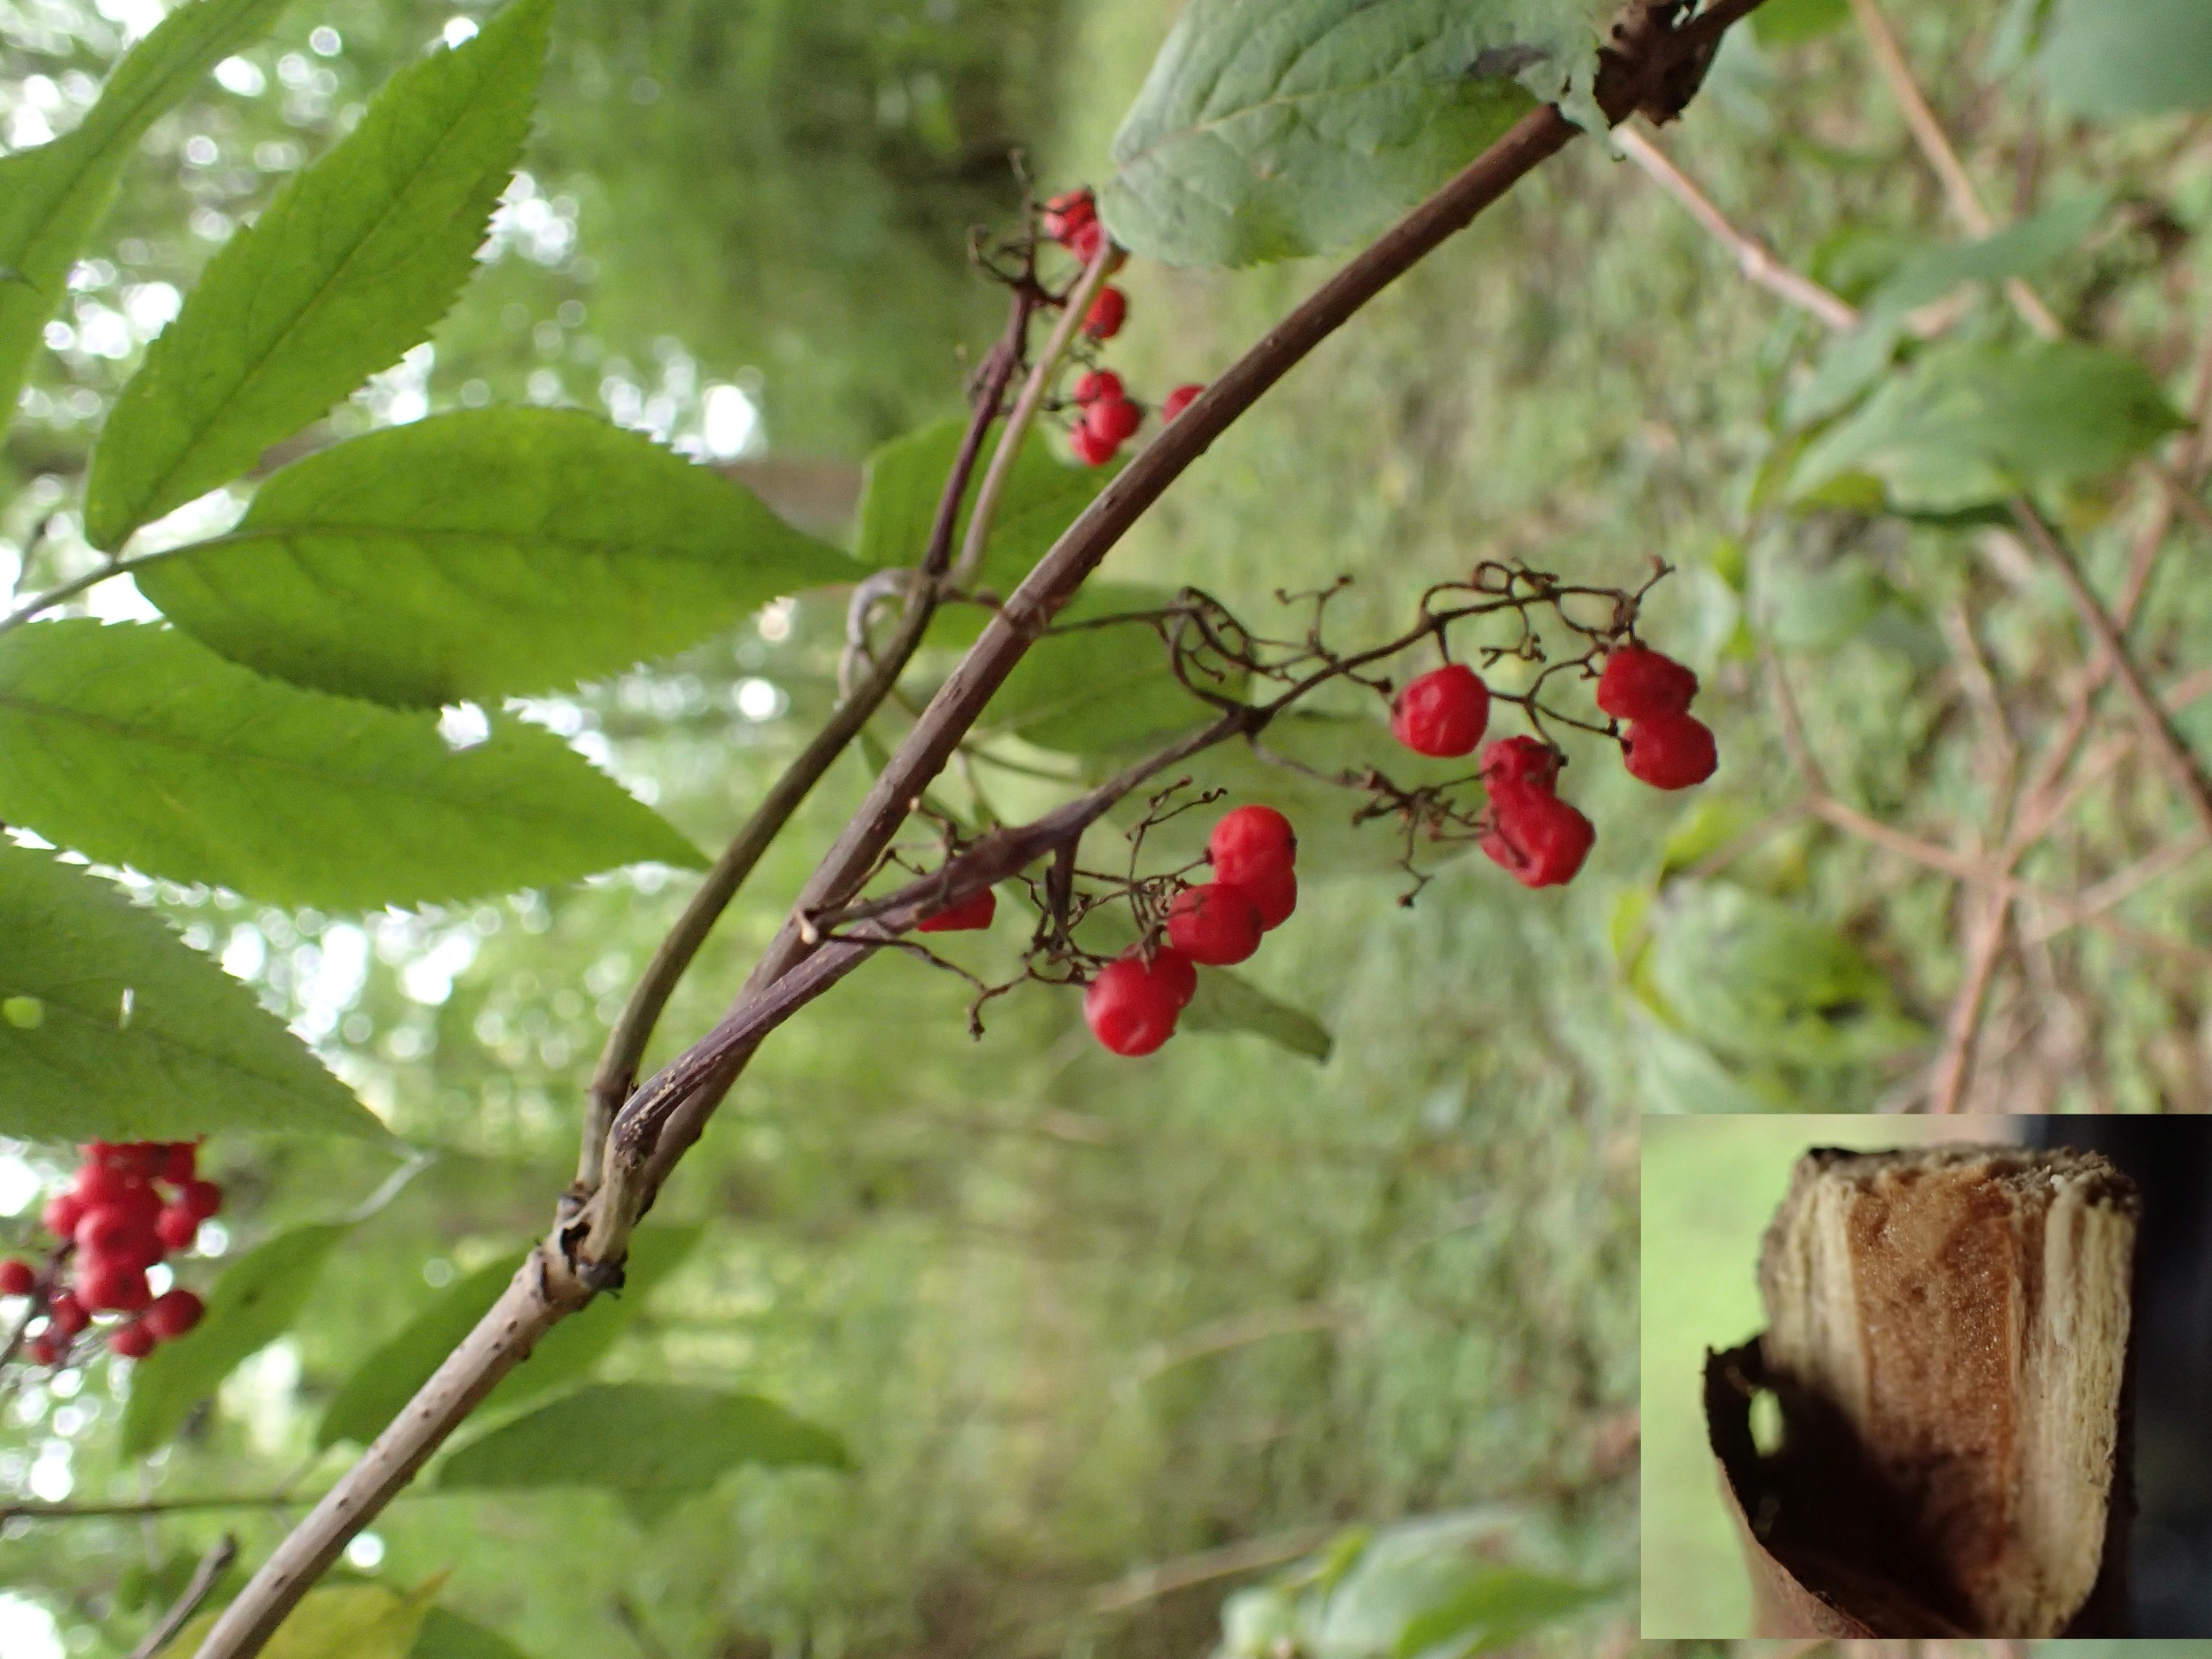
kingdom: Plantae
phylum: Tracheophyta
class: Magnoliopsida
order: Dipsacales
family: Viburnaceae
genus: Sambucus
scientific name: Sambucus racemosa
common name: Drue-hyld
